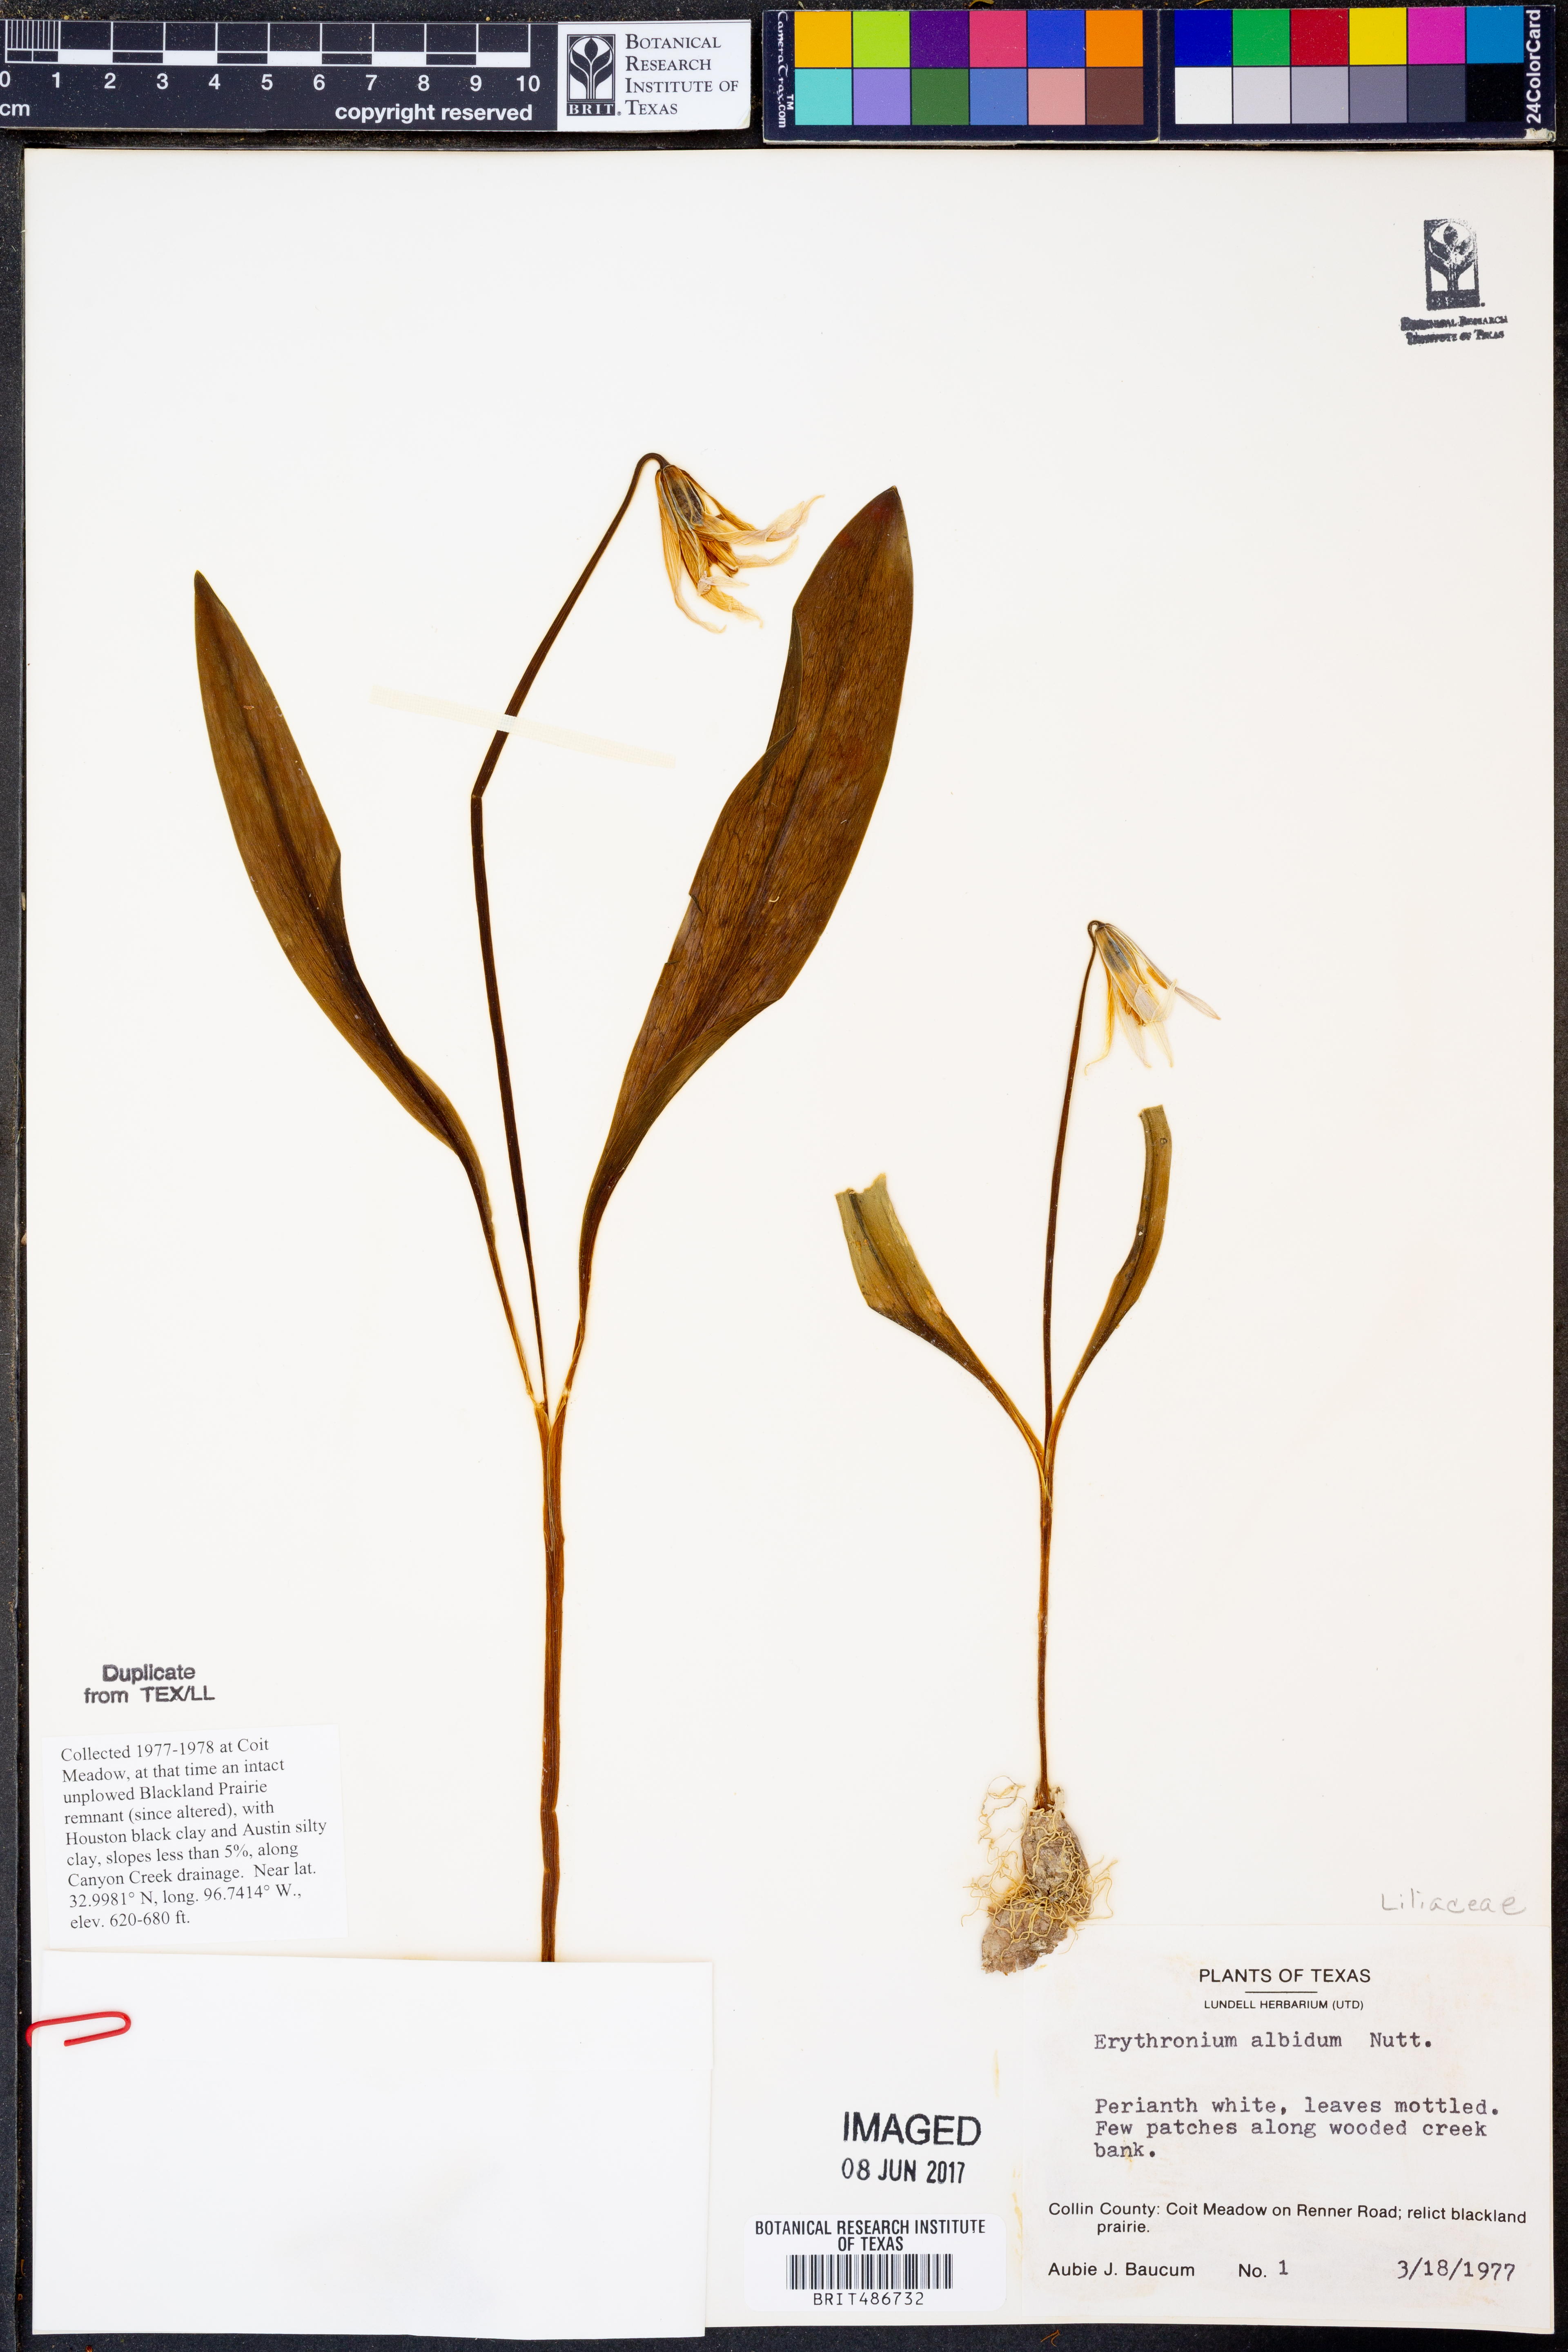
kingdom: Plantae
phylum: Tracheophyta
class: Liliopsida
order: Liliales
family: Liliaceae
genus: Erythronium
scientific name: Erythronium albidum
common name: White trout-lily
